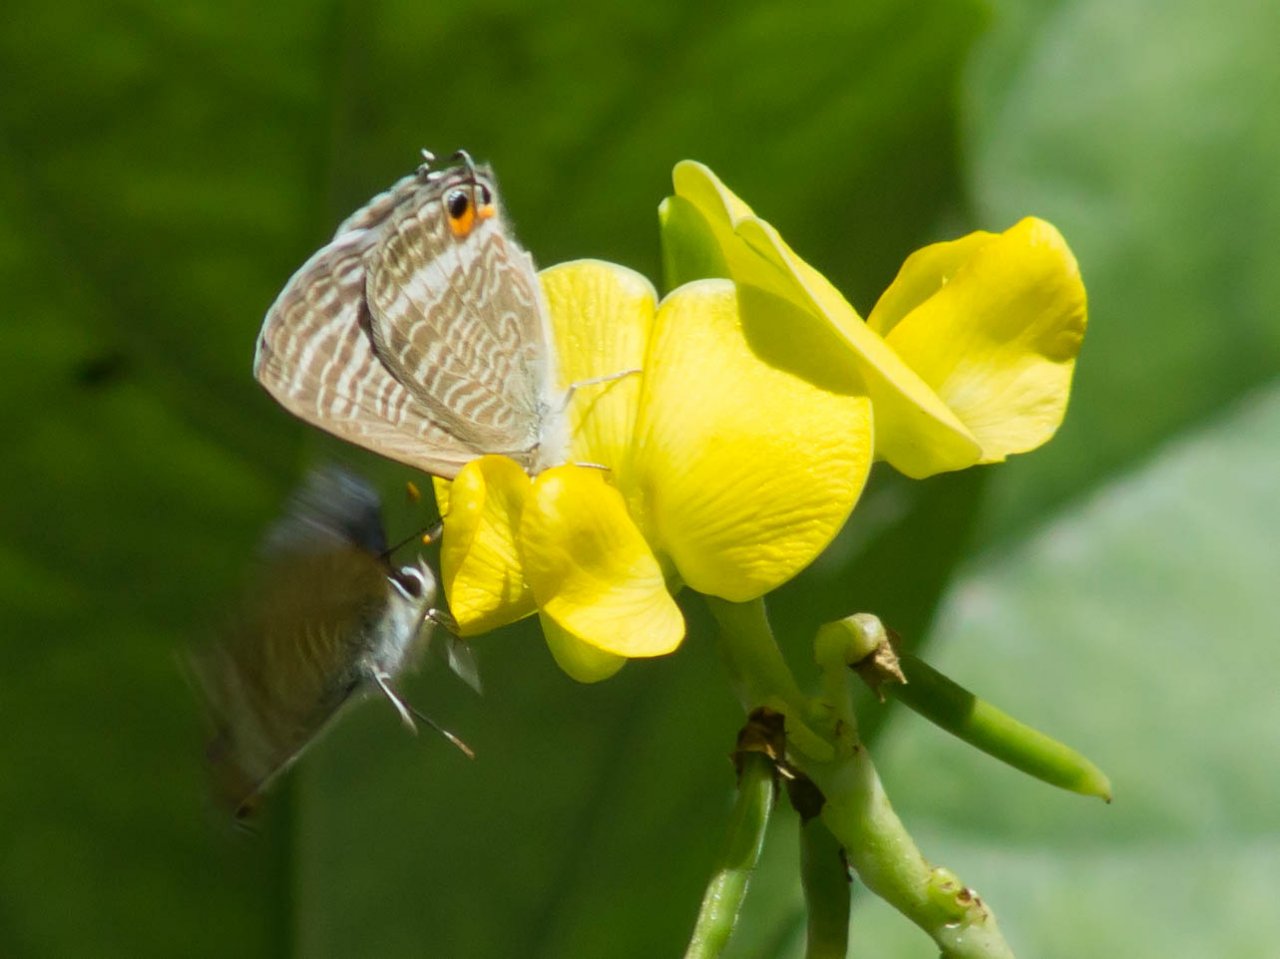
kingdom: Animalia
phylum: Arthropoda
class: Insecta
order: Lepidoptera
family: Lycaenidae
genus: Lampides
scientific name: Lampides boeticus
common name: Pea Blue
